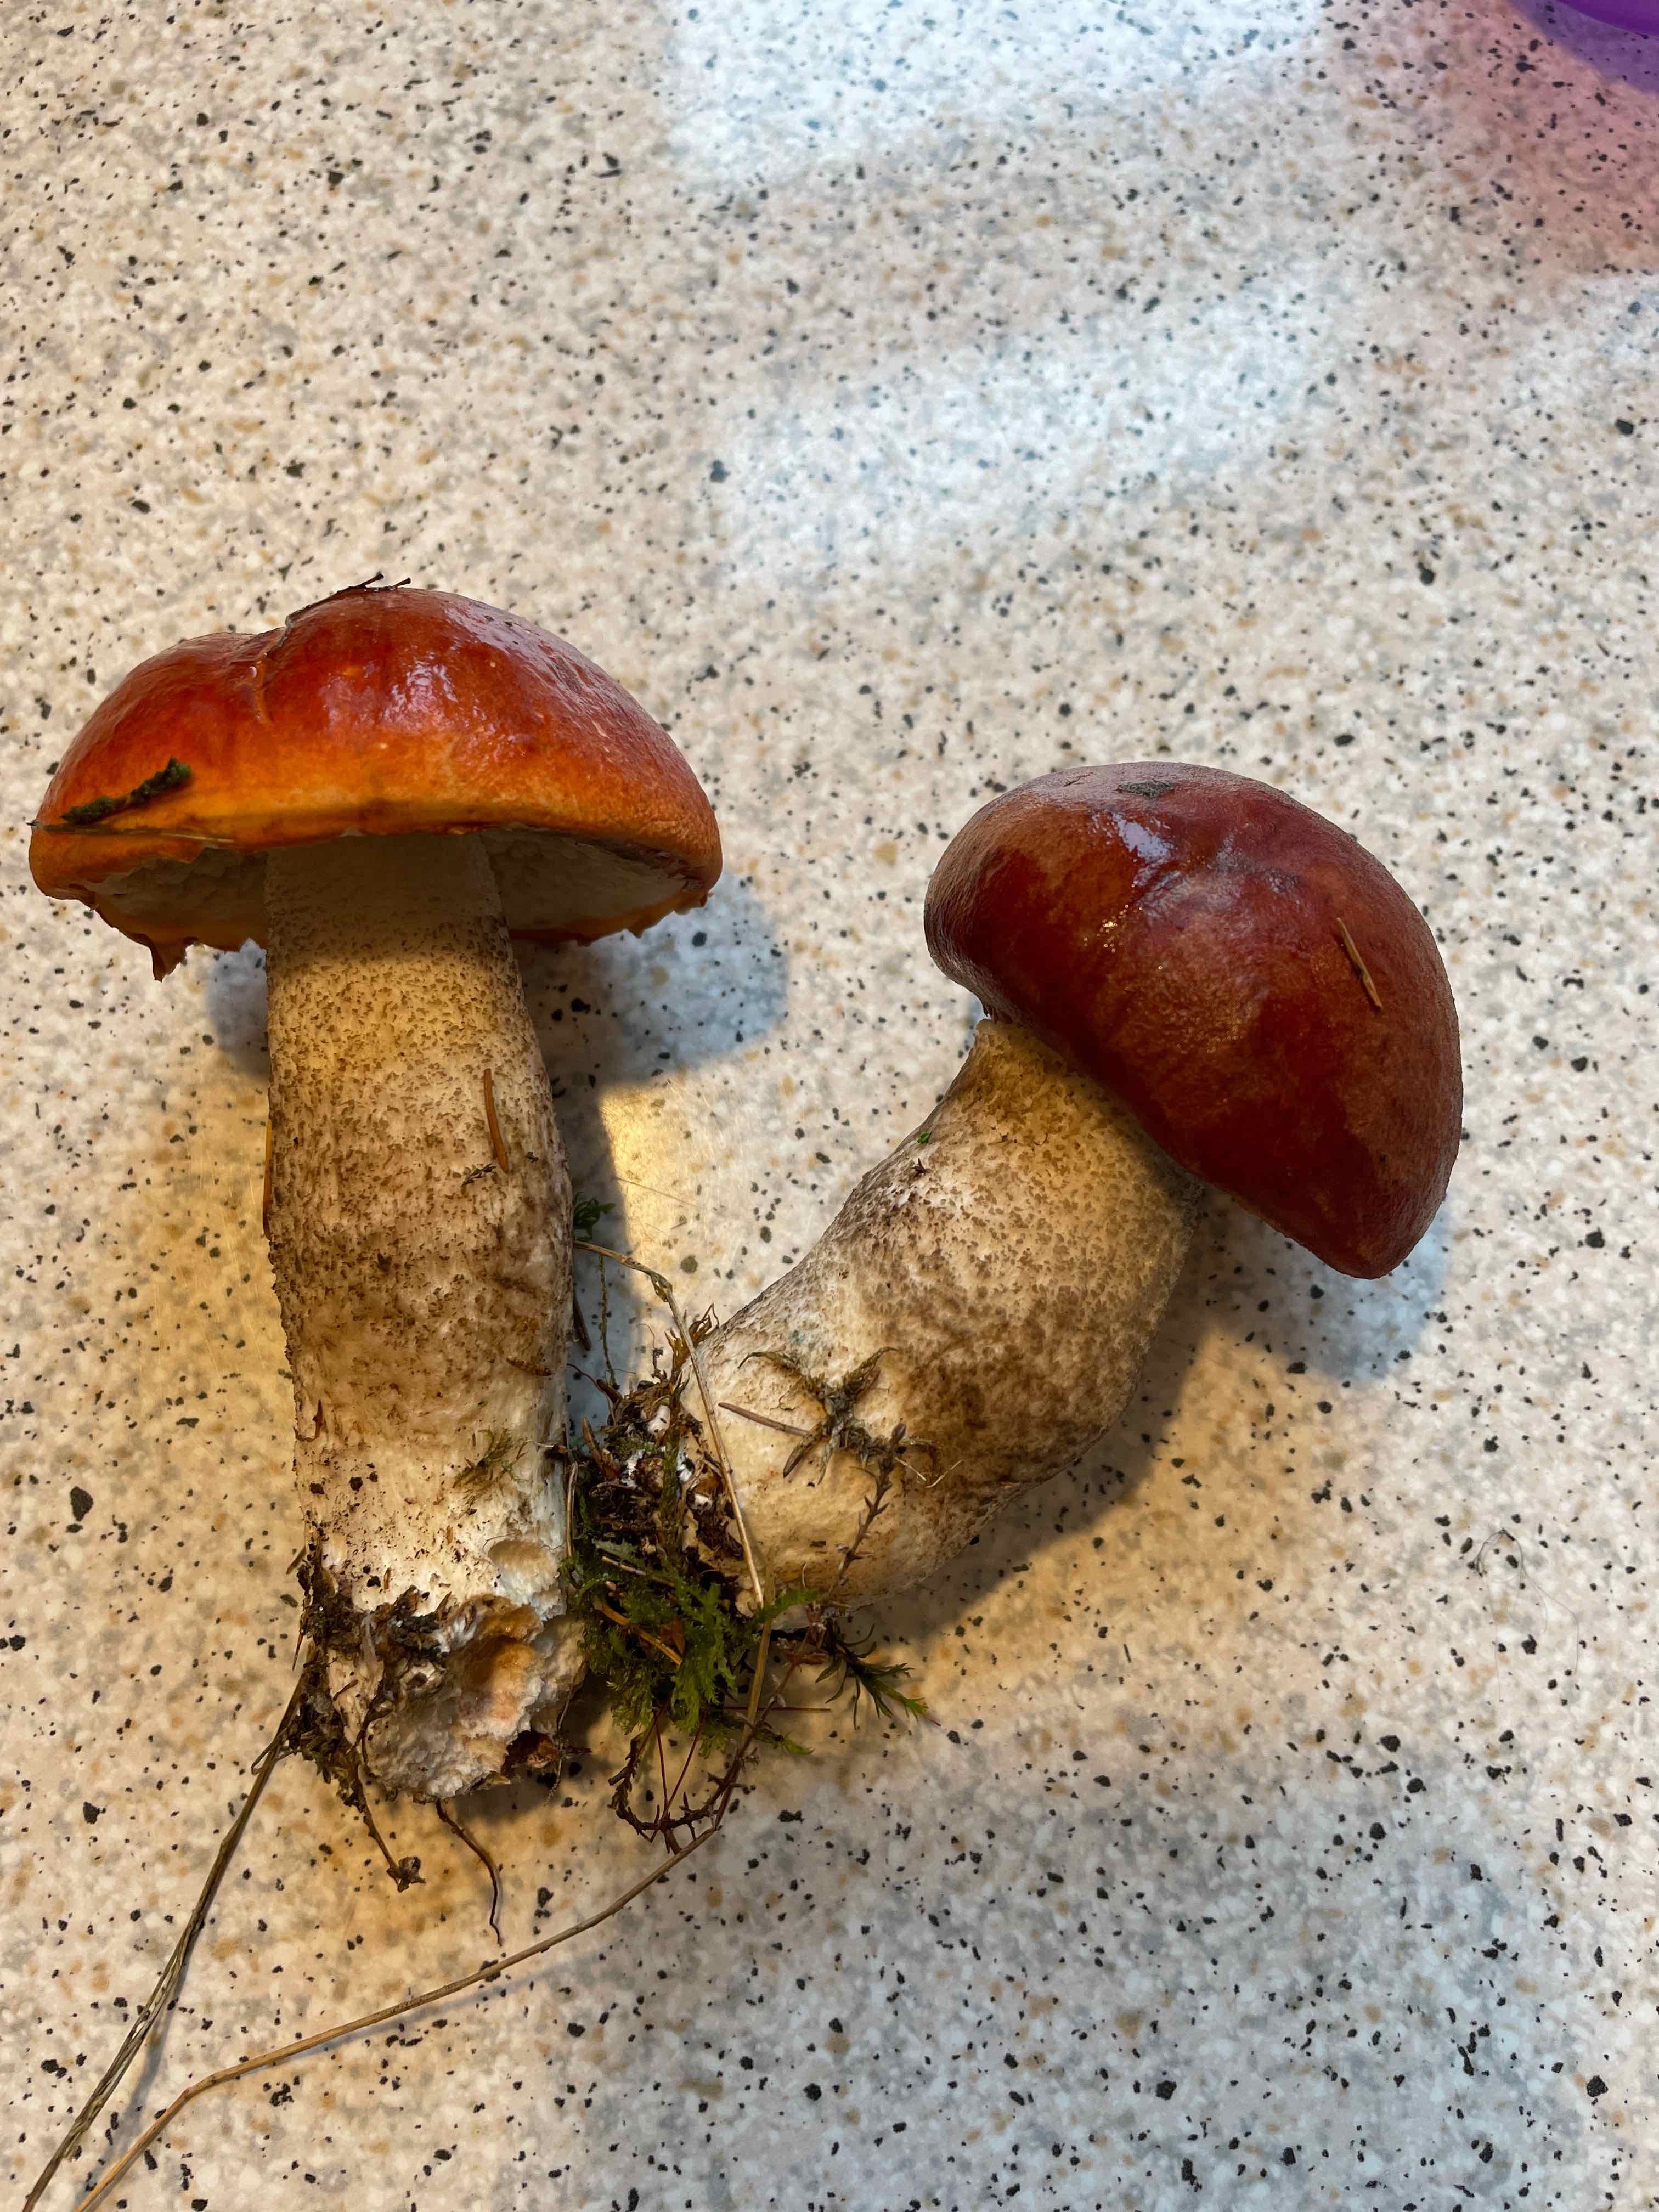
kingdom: Fungi
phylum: Basidiomycota
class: Agaricomycetes
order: Boletales
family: Boletaceae
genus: Leccinum
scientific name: Leccinum versipelle
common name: orange skælrørhat
